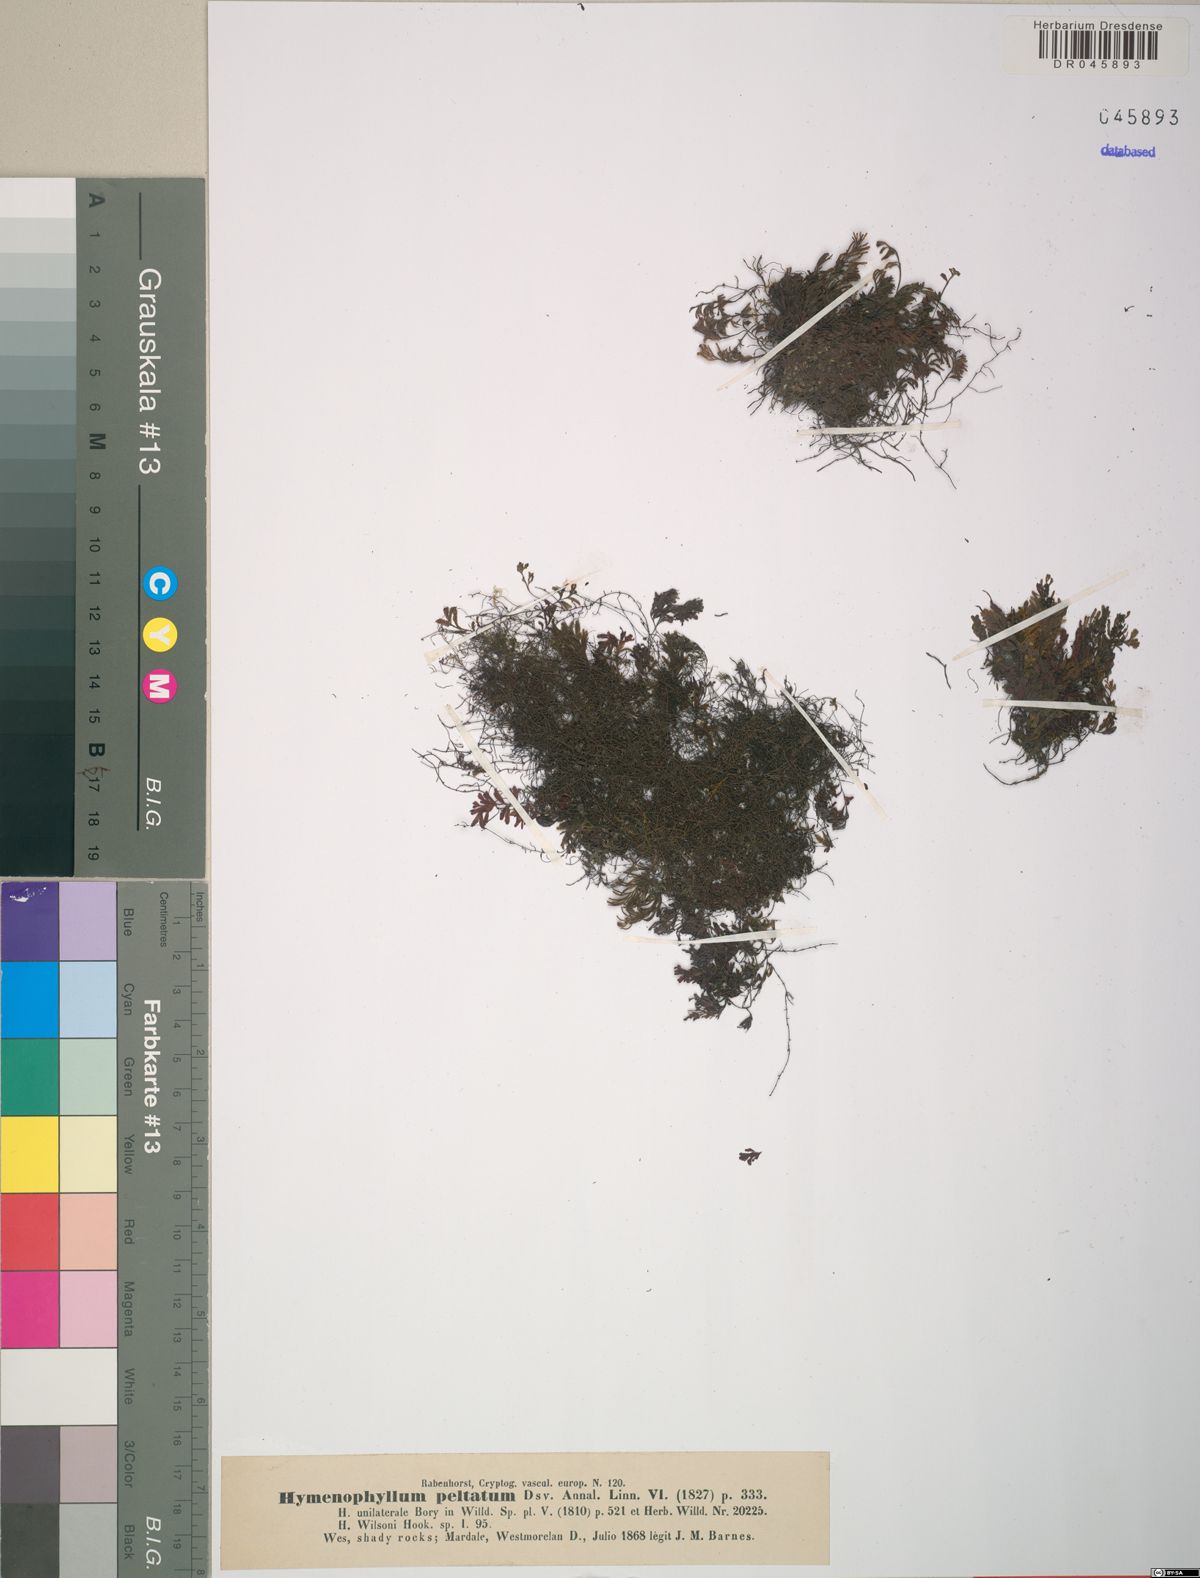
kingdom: Plantae
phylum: Tracheophyta
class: Polypodiopsida
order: Hymenophyllales
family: Hymenophyllaceae
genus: Hymenophyllum
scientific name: Hymenophyllum peltatum
